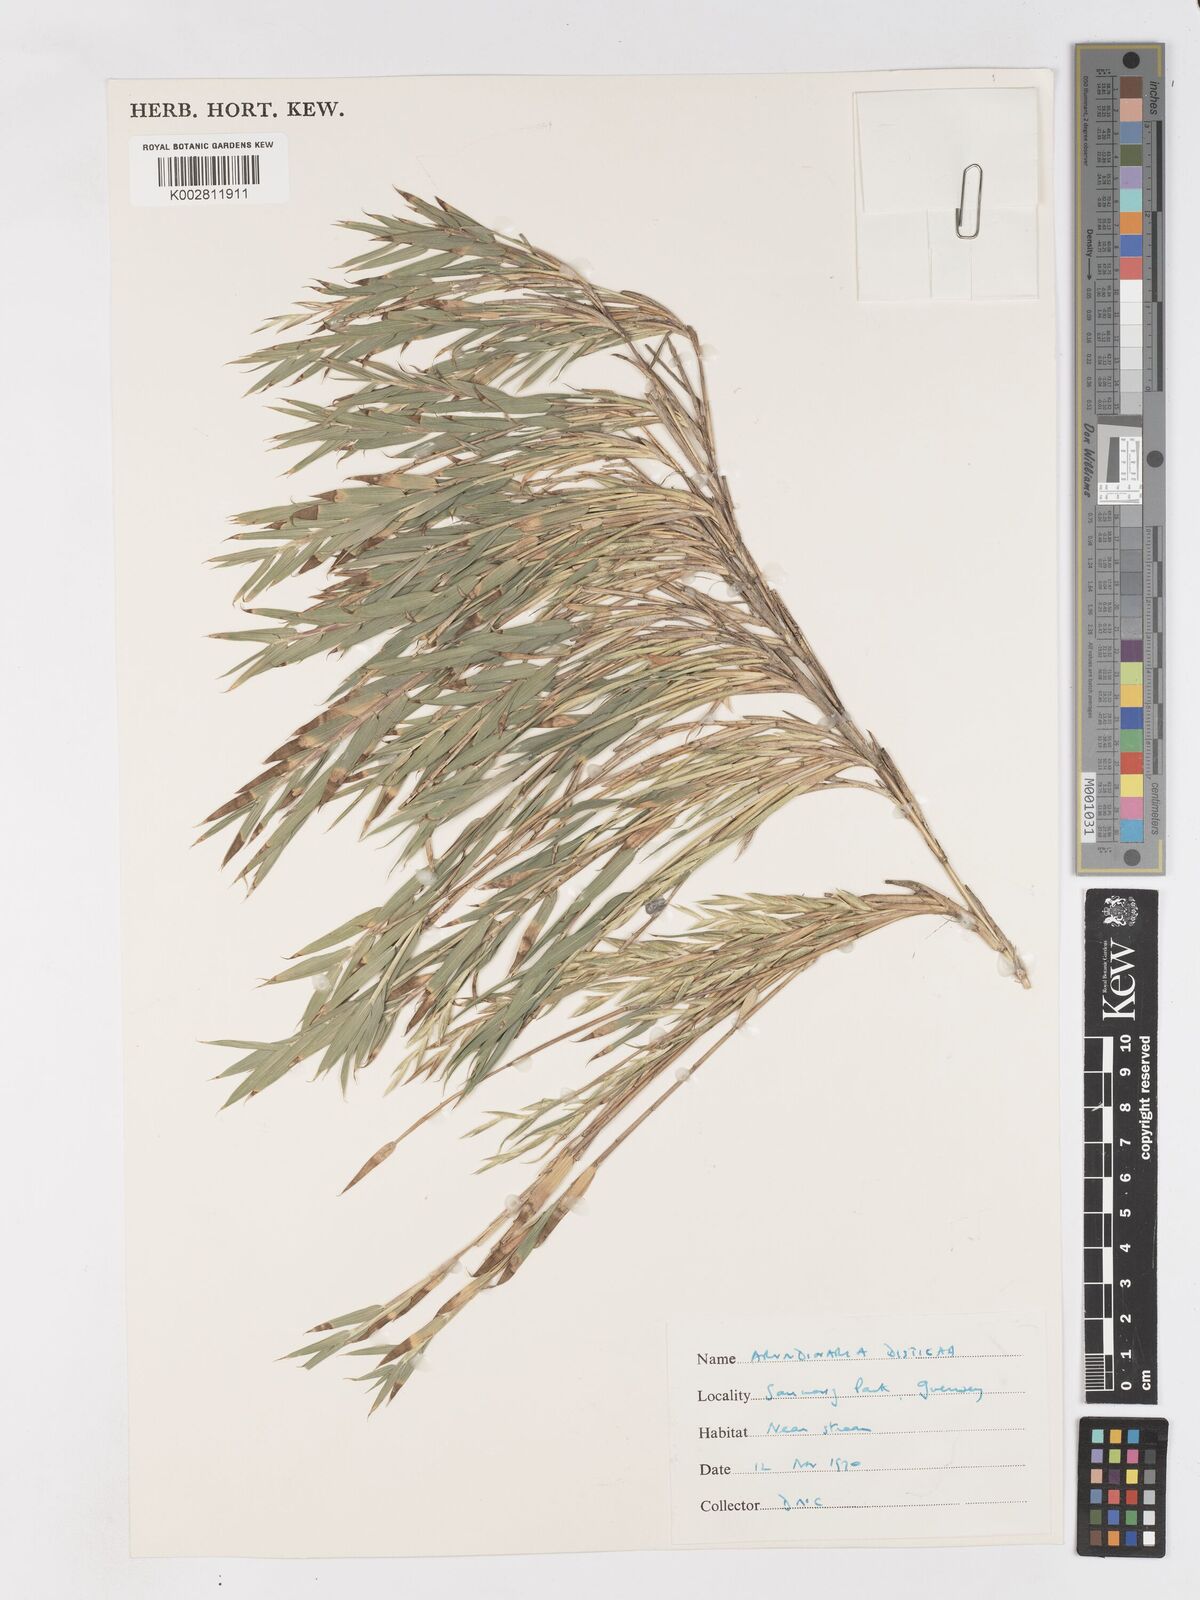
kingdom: Plantae
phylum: Tracheophyta
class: Liliopsida
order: Poales
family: Poaceae
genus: Pleioblastus
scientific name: Pleioblastus distichus
